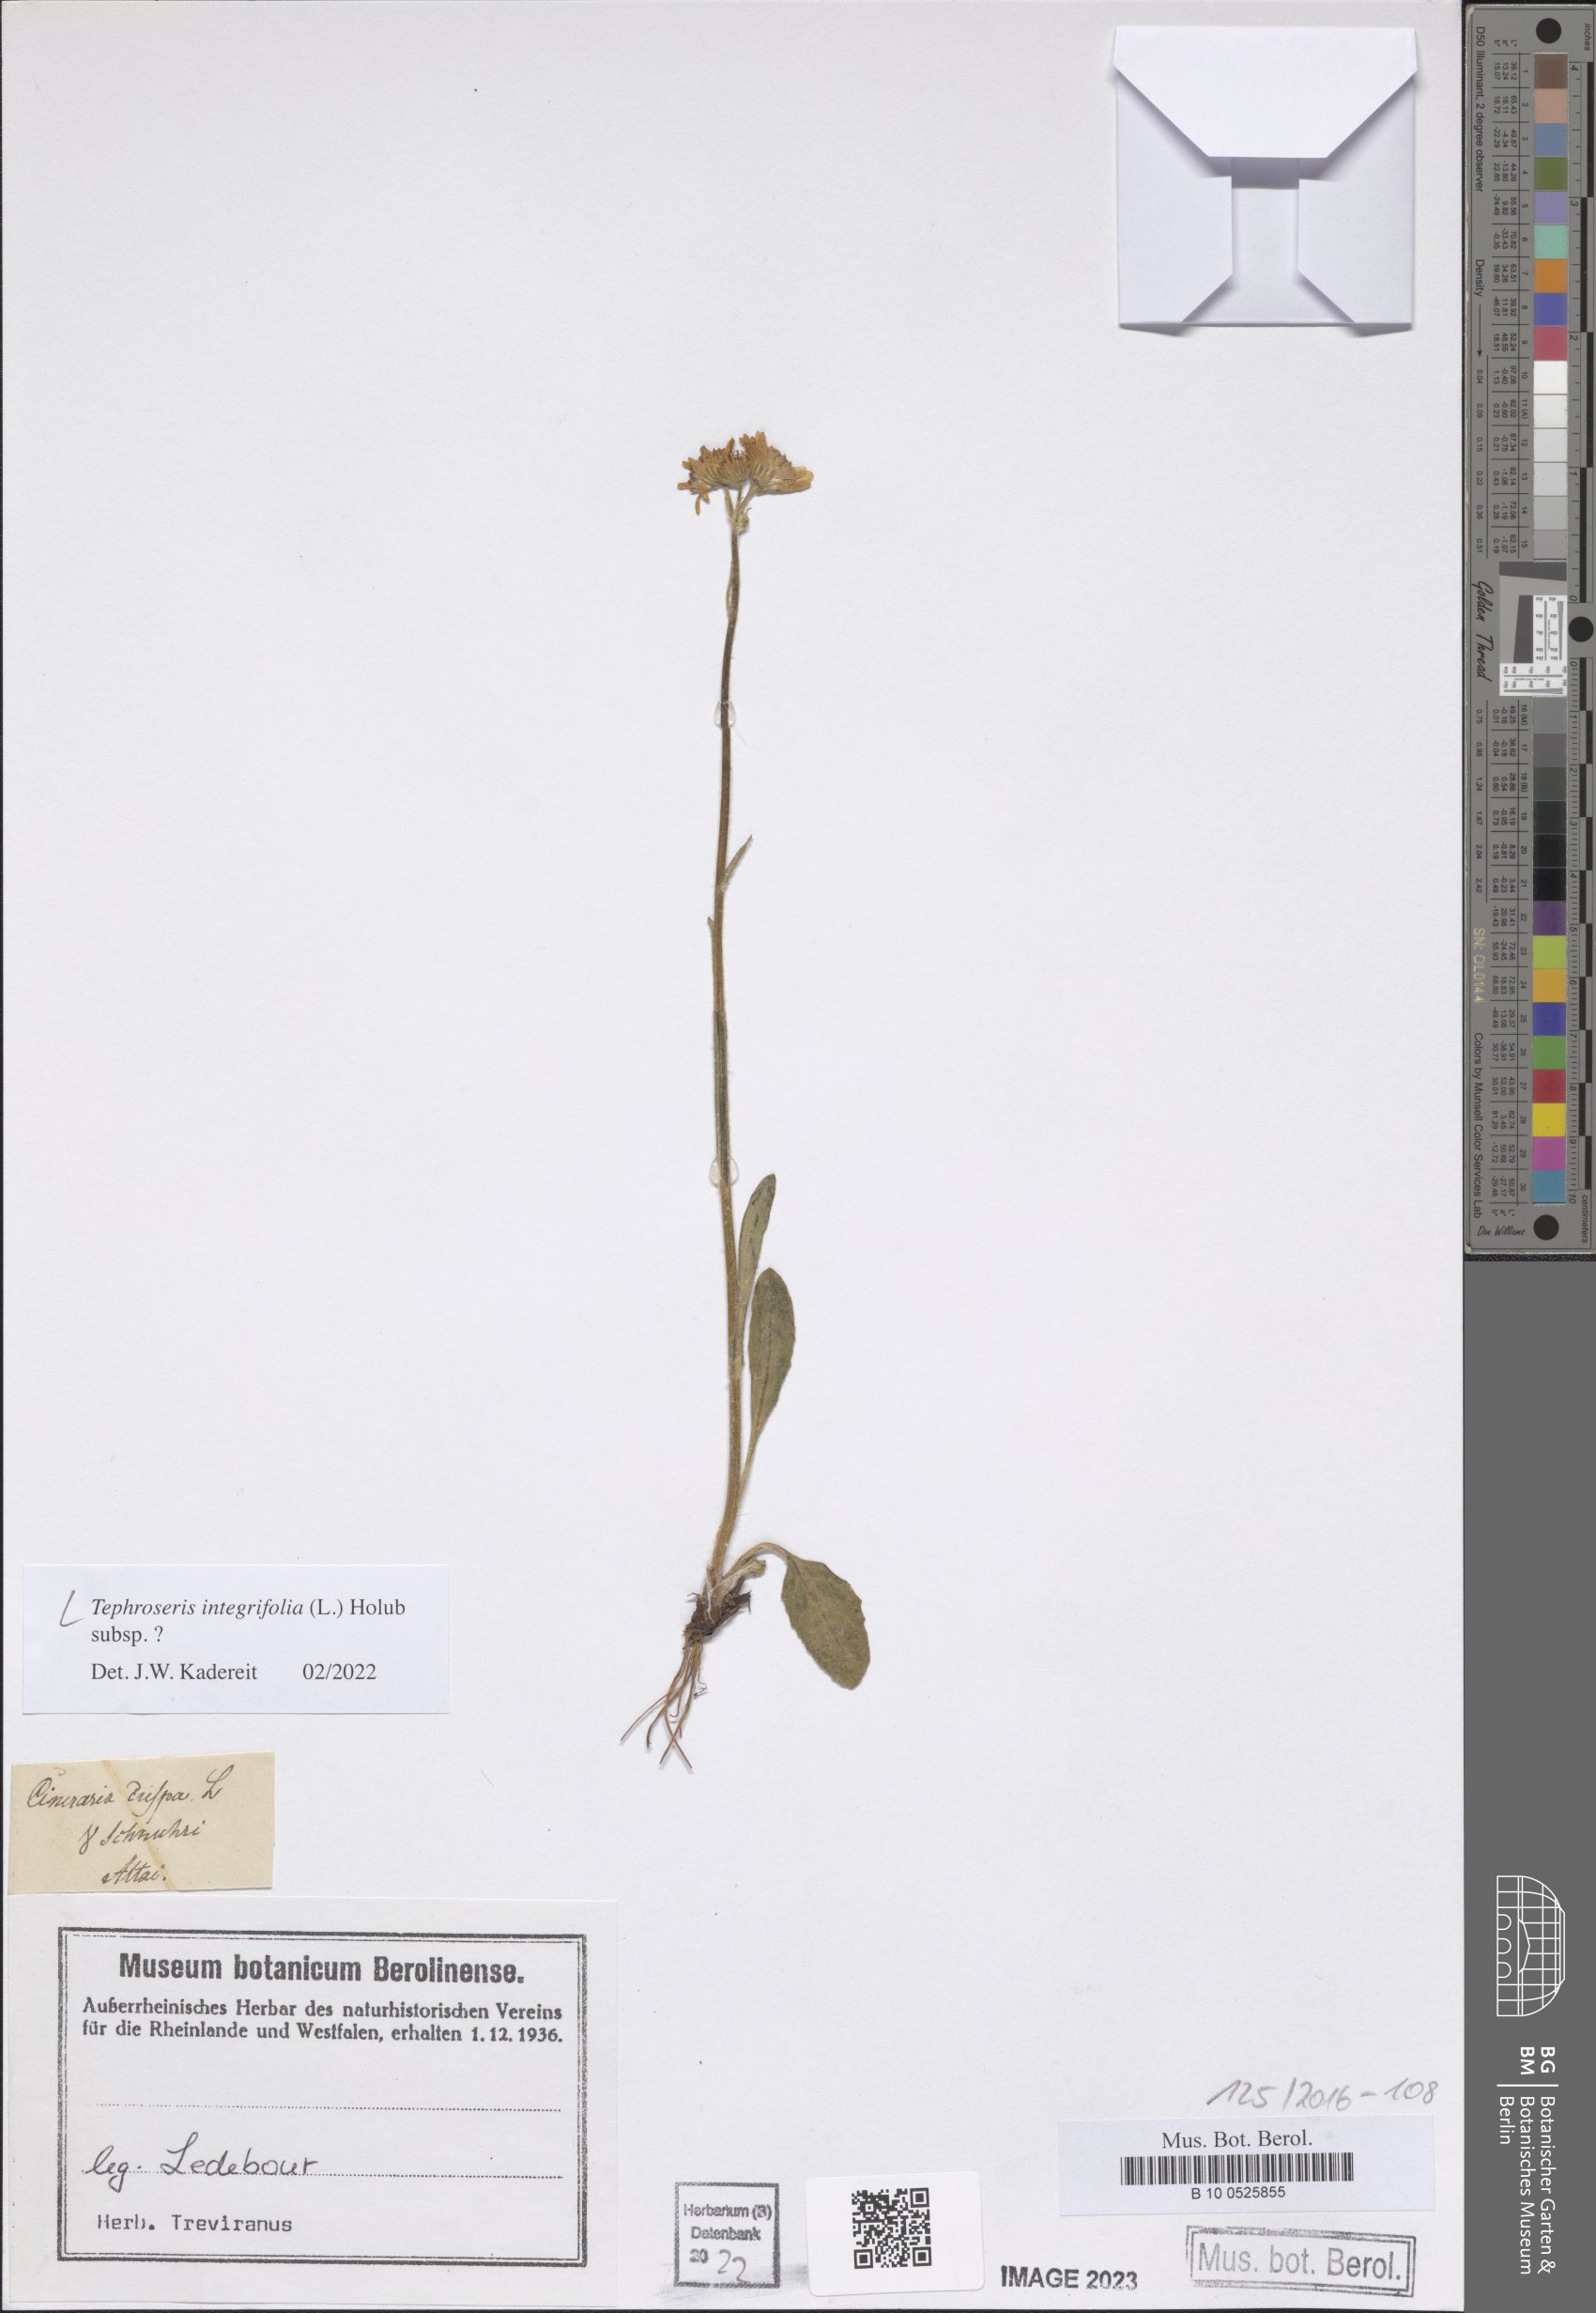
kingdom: Plantae
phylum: Tracheophyta
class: Magnoliopsida
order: Asterales
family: Asteraceae
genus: Tephroseris
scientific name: Tephroseris integrifolia
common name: Field fleawort
